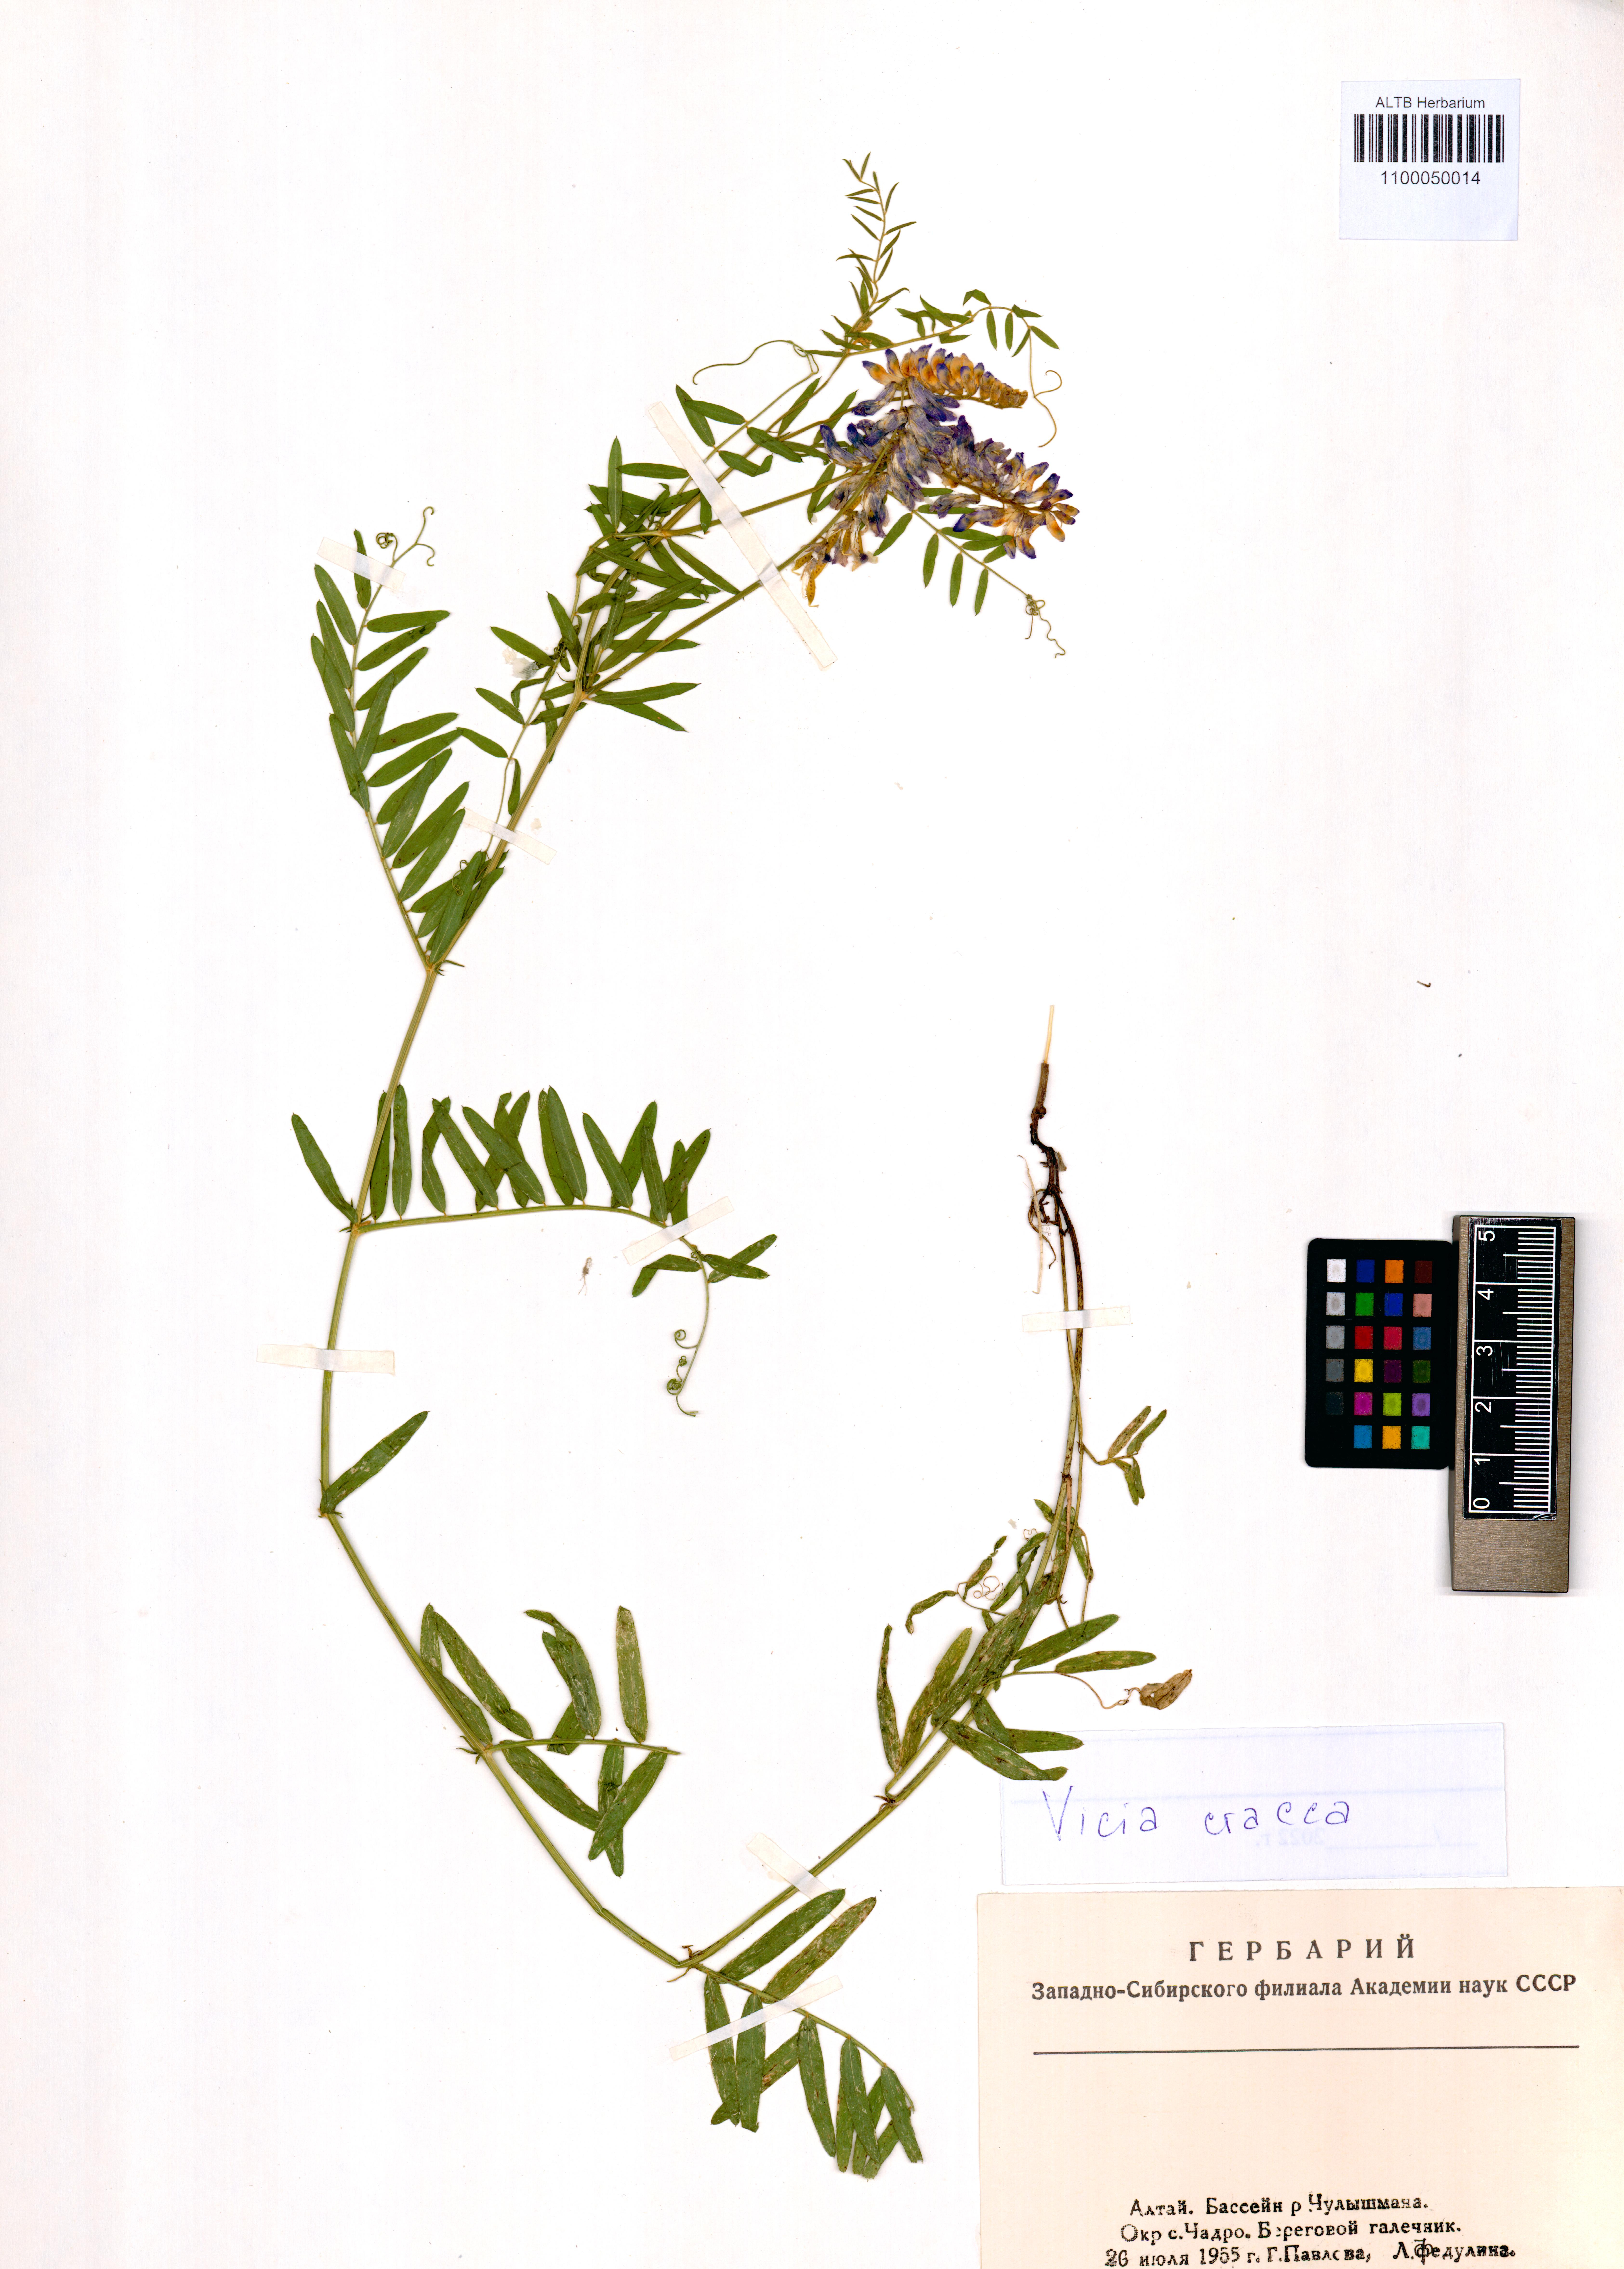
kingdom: Plantae
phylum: Tracheophyta
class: Magnoliopsida
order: Fabales
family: Fabaceae
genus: Vicia
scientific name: Vicia cracca
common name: Bird vetch
